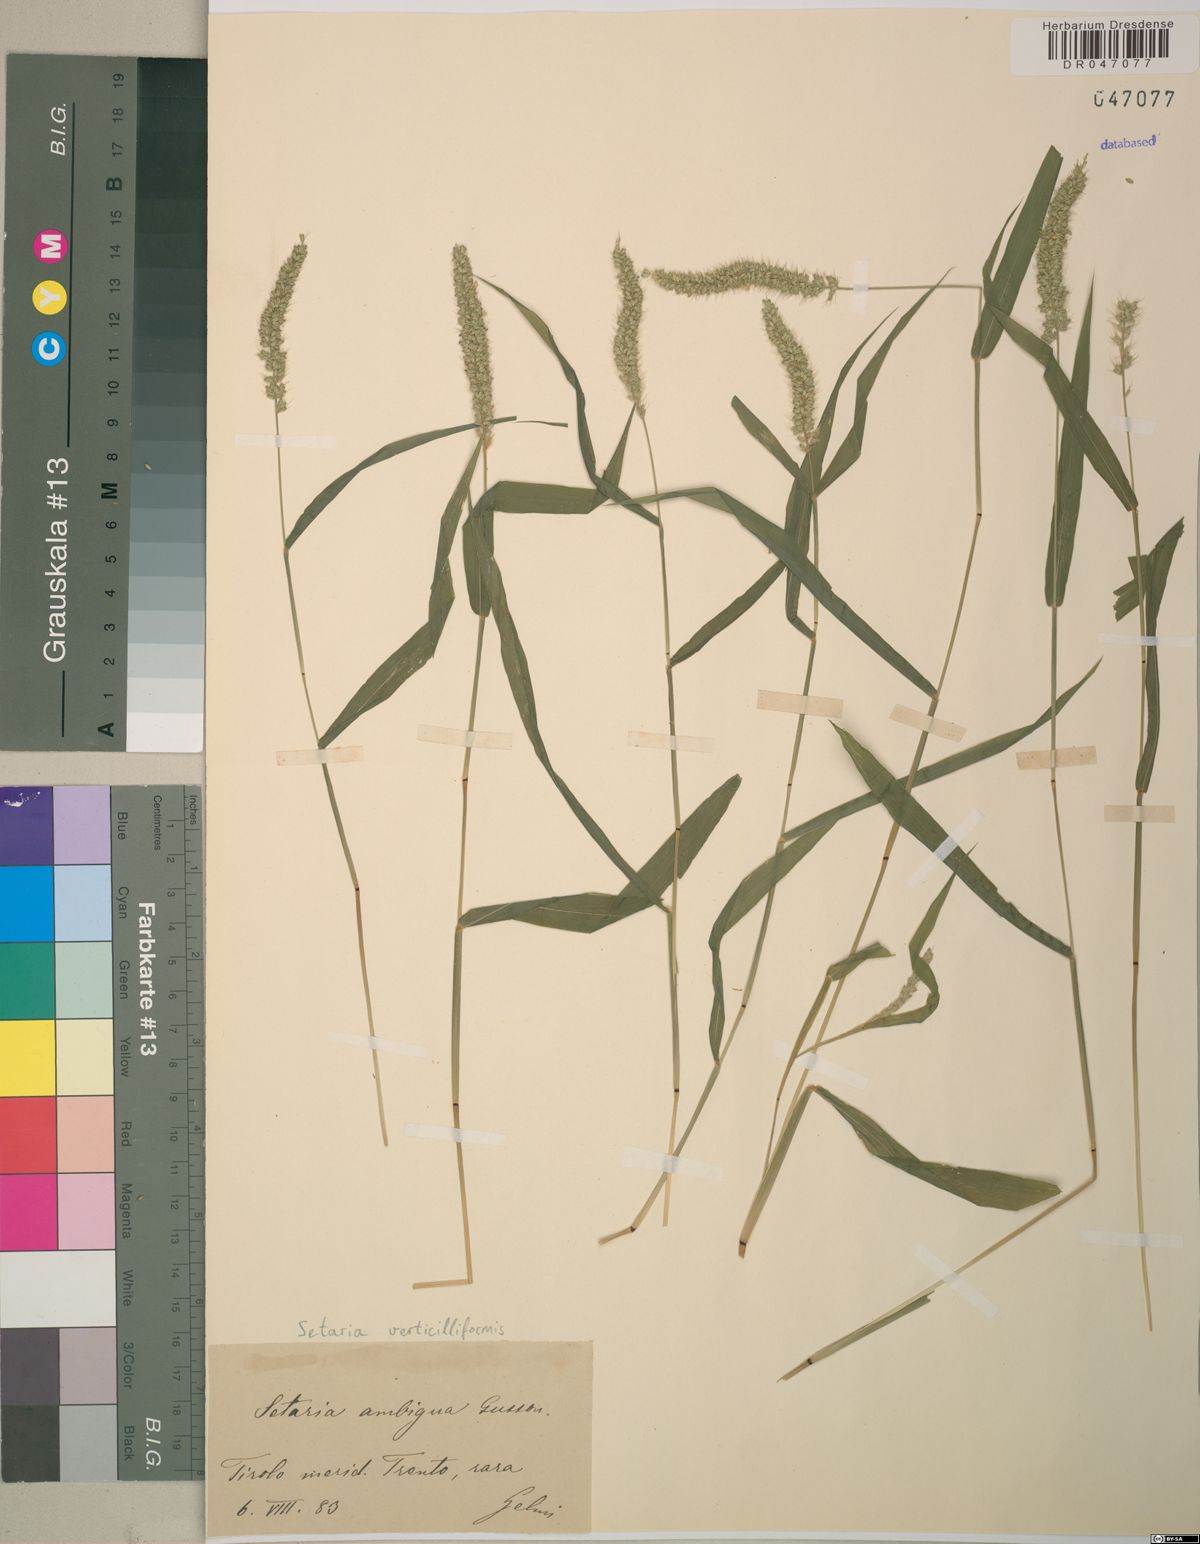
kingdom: Plantae
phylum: Tracheophyta
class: Liliopsida
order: Poales
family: Poaceae
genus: Setaria
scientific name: Setaria verticillata
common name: Hooked bristlegrass
